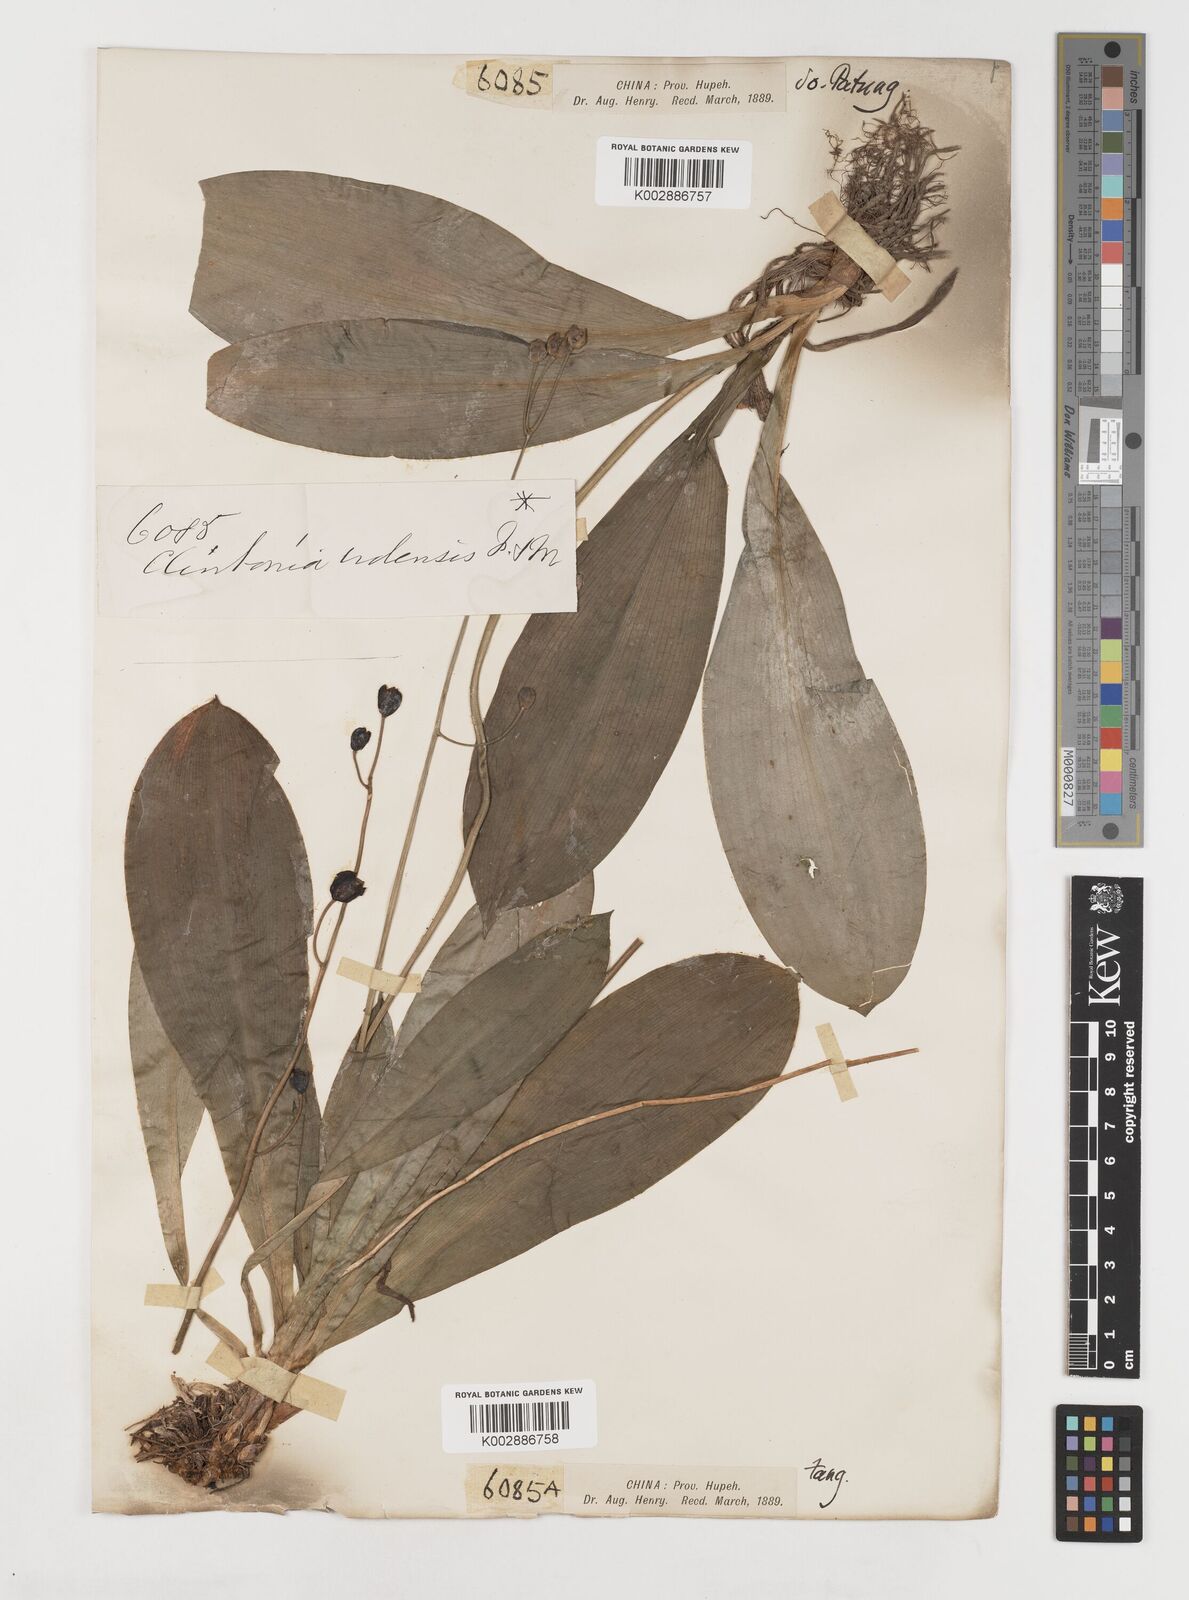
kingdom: Plantae
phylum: Tracheophyta
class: Liliopsida
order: Liliales
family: Liliaceae
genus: Clintonia
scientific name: Clintonia udensis
